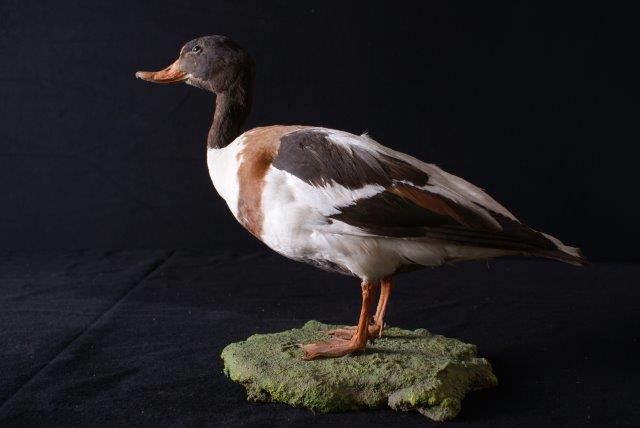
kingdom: Animalia
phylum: Chordata
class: Aves
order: Anseriformes
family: Anatidae
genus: Tadorna
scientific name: Tadorna tadorna
